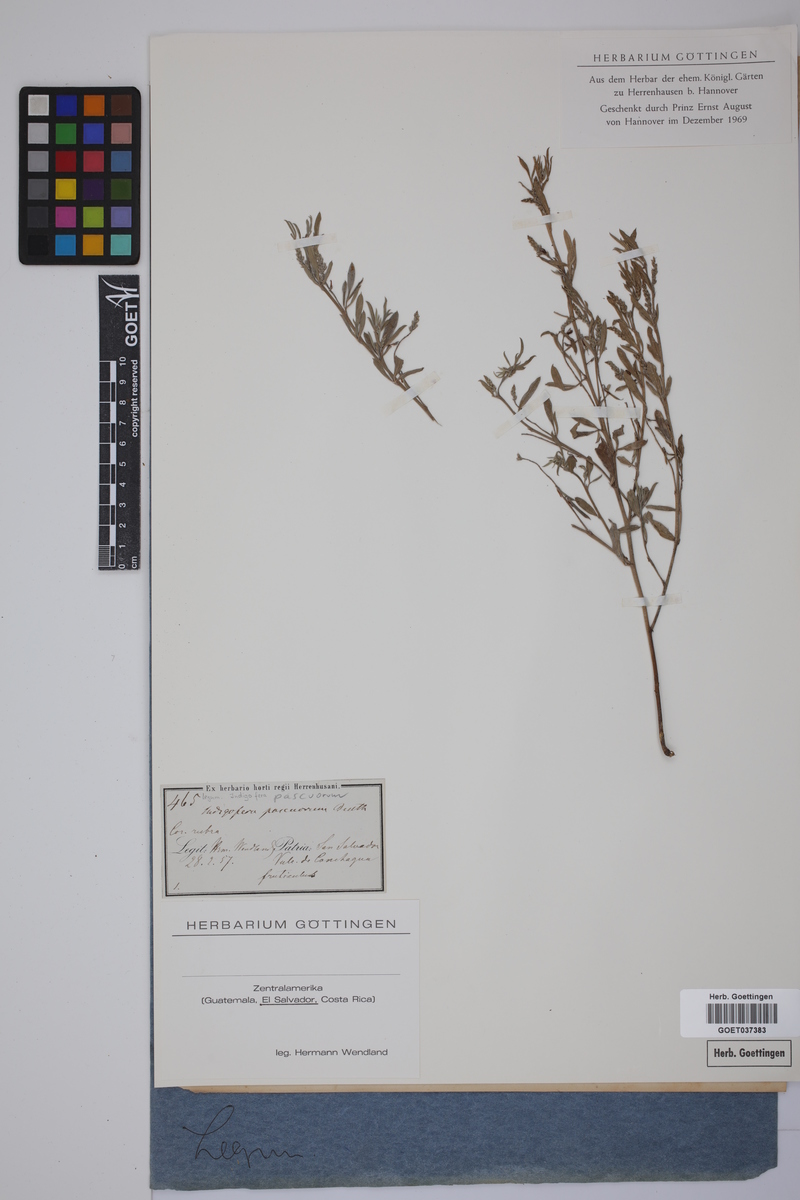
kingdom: Plantae
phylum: Tracheophyta
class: Magnoliopsida
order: Fabales
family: Fabaceae
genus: Indigofera
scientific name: Indigofera lespedezioides
